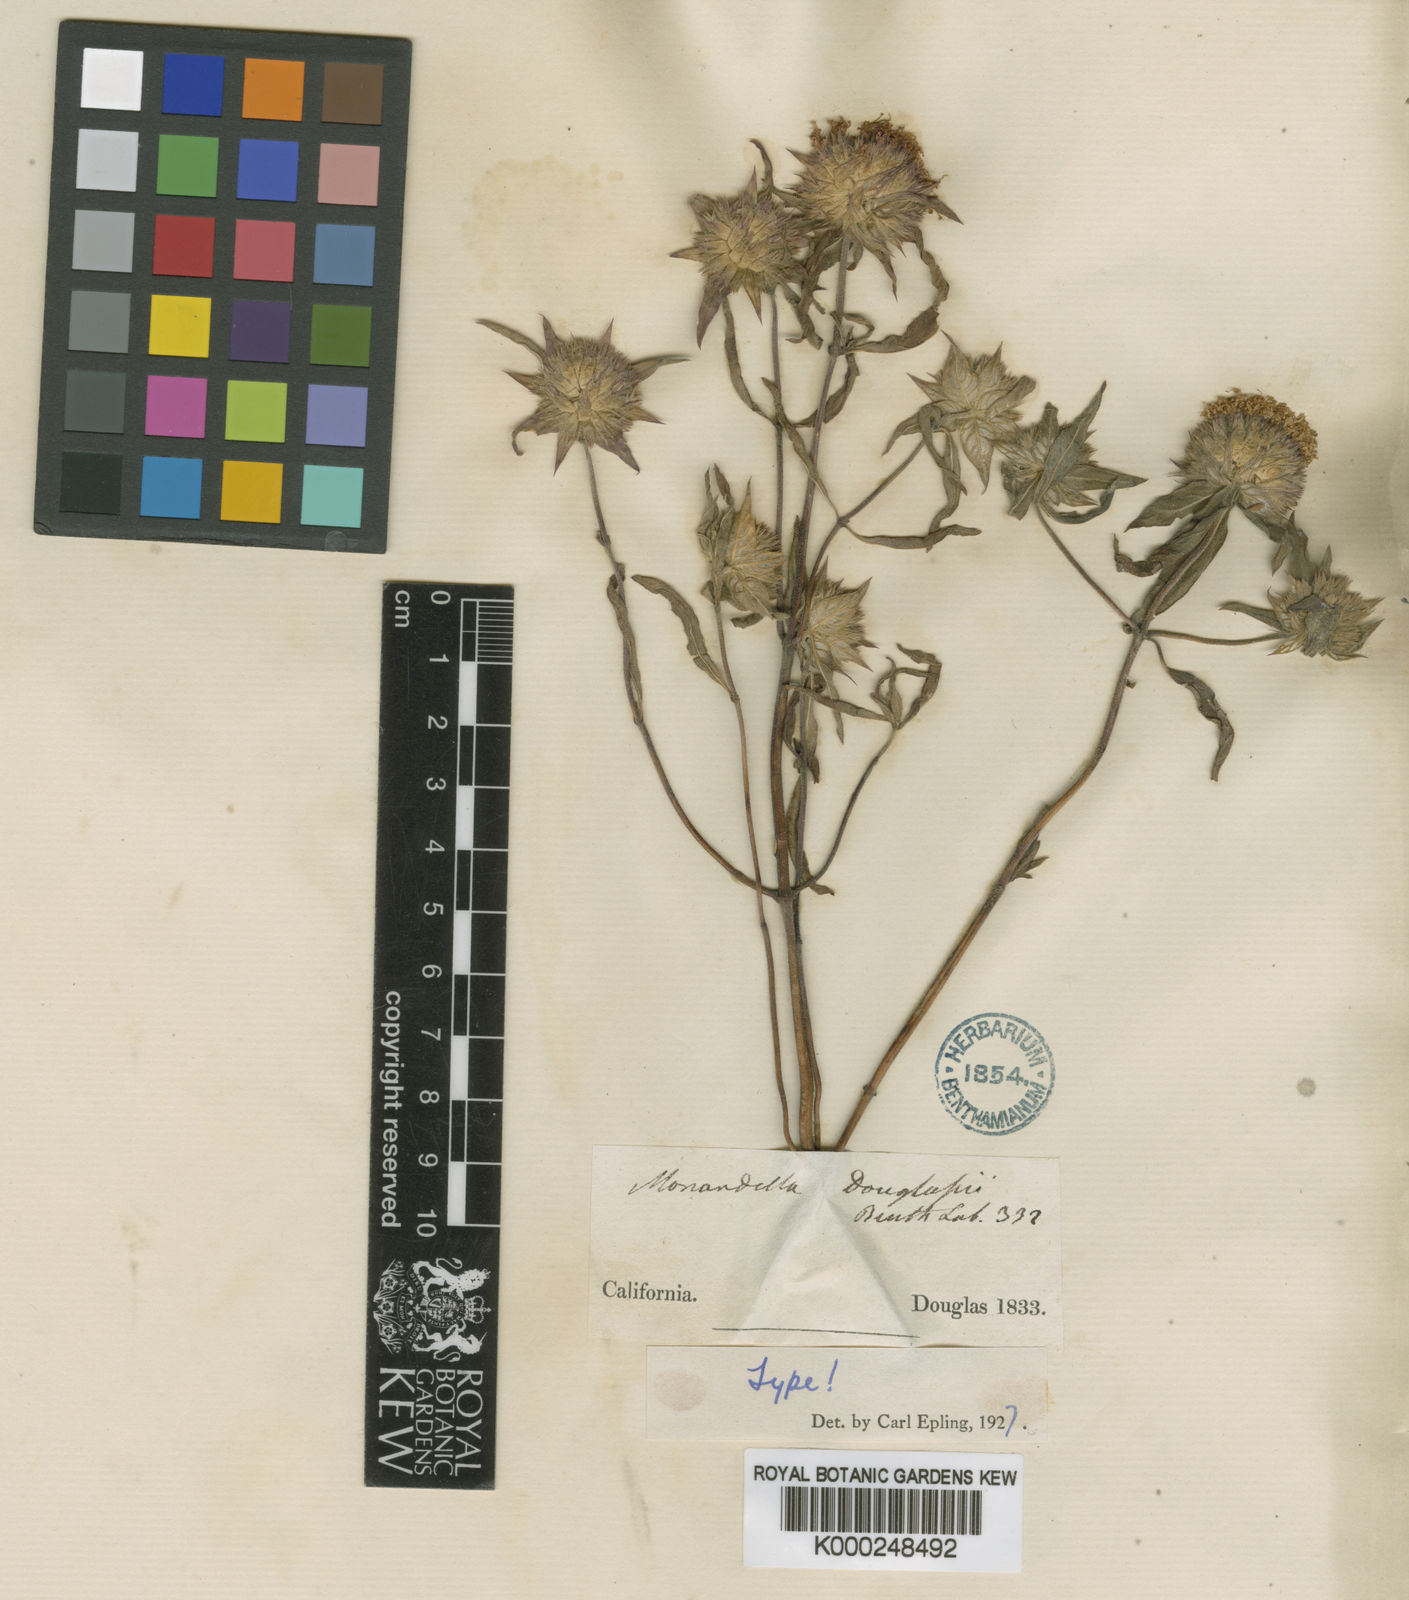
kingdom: Plantae
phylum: Tracheophyta
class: Magnoliopsida
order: Lamiales
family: Lamiaceae
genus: Monardella
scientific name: Monardella douglasii
